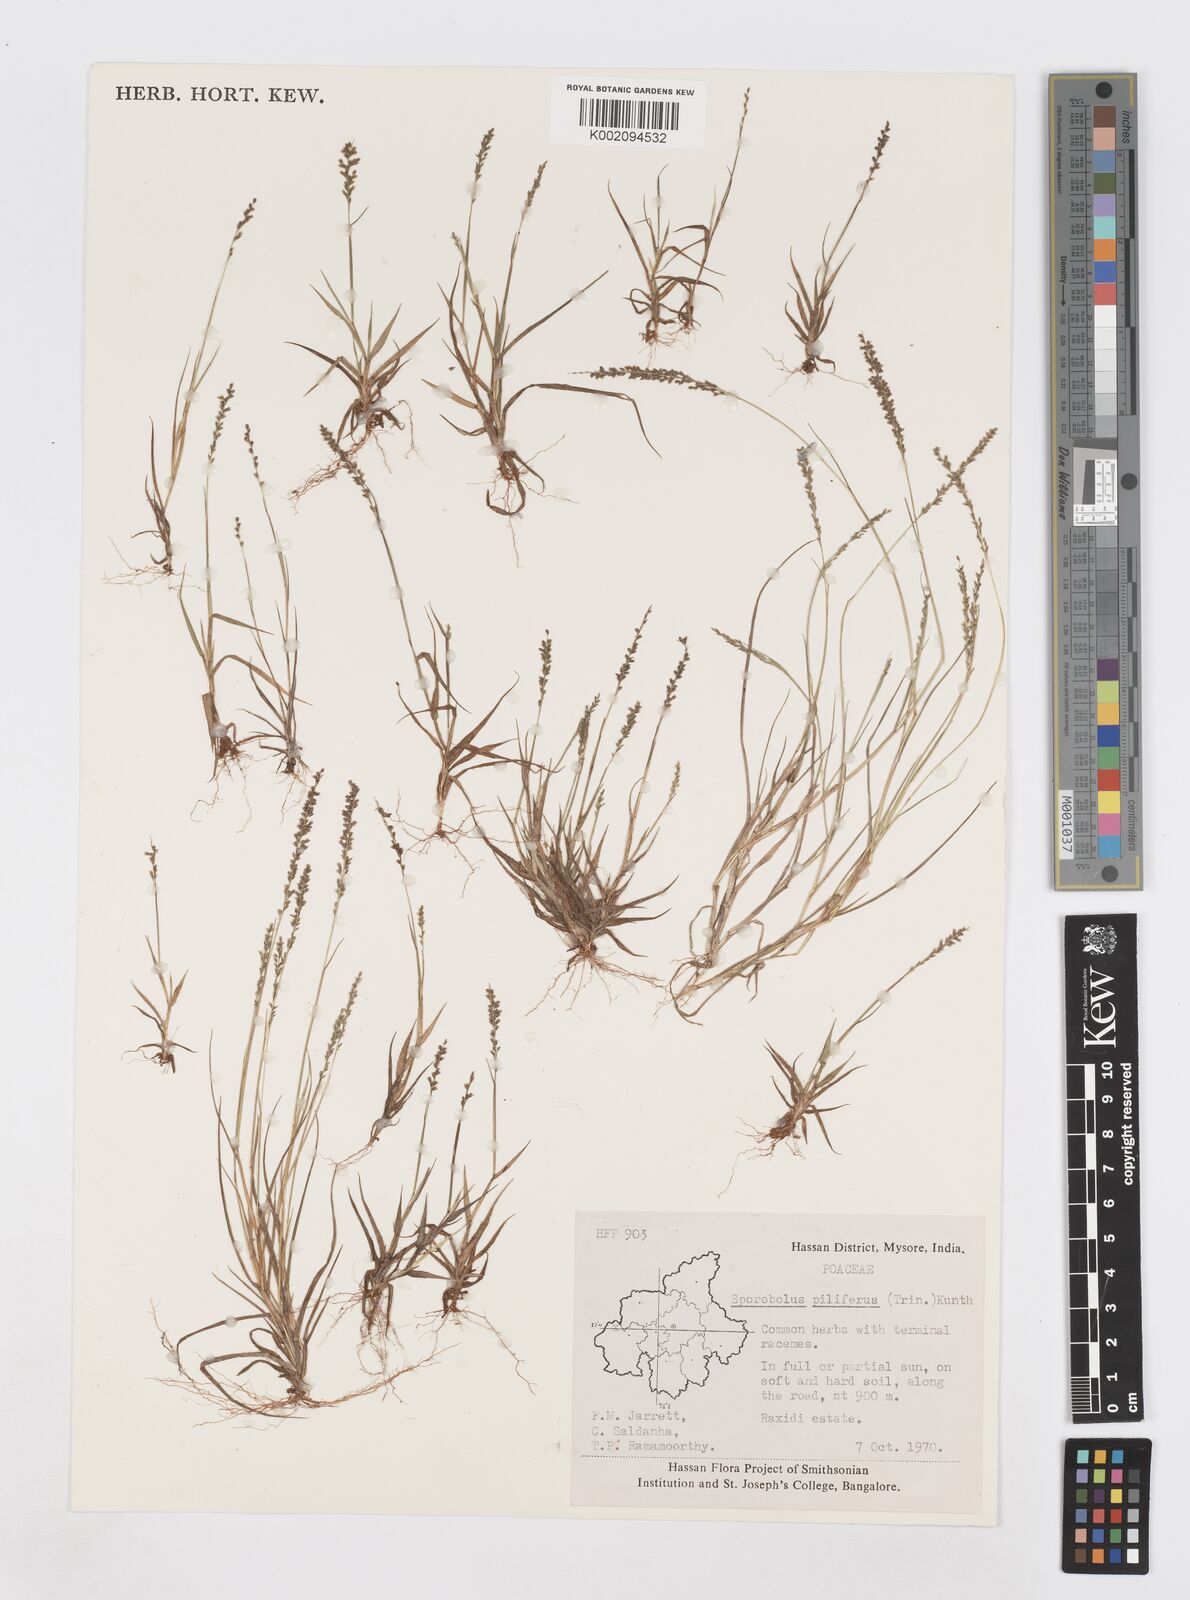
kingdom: Plantae
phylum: Tracheophyta
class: Liliopsida
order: Poales
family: Poaceae
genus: Sporobolus
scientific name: Sporobolus pilifer
